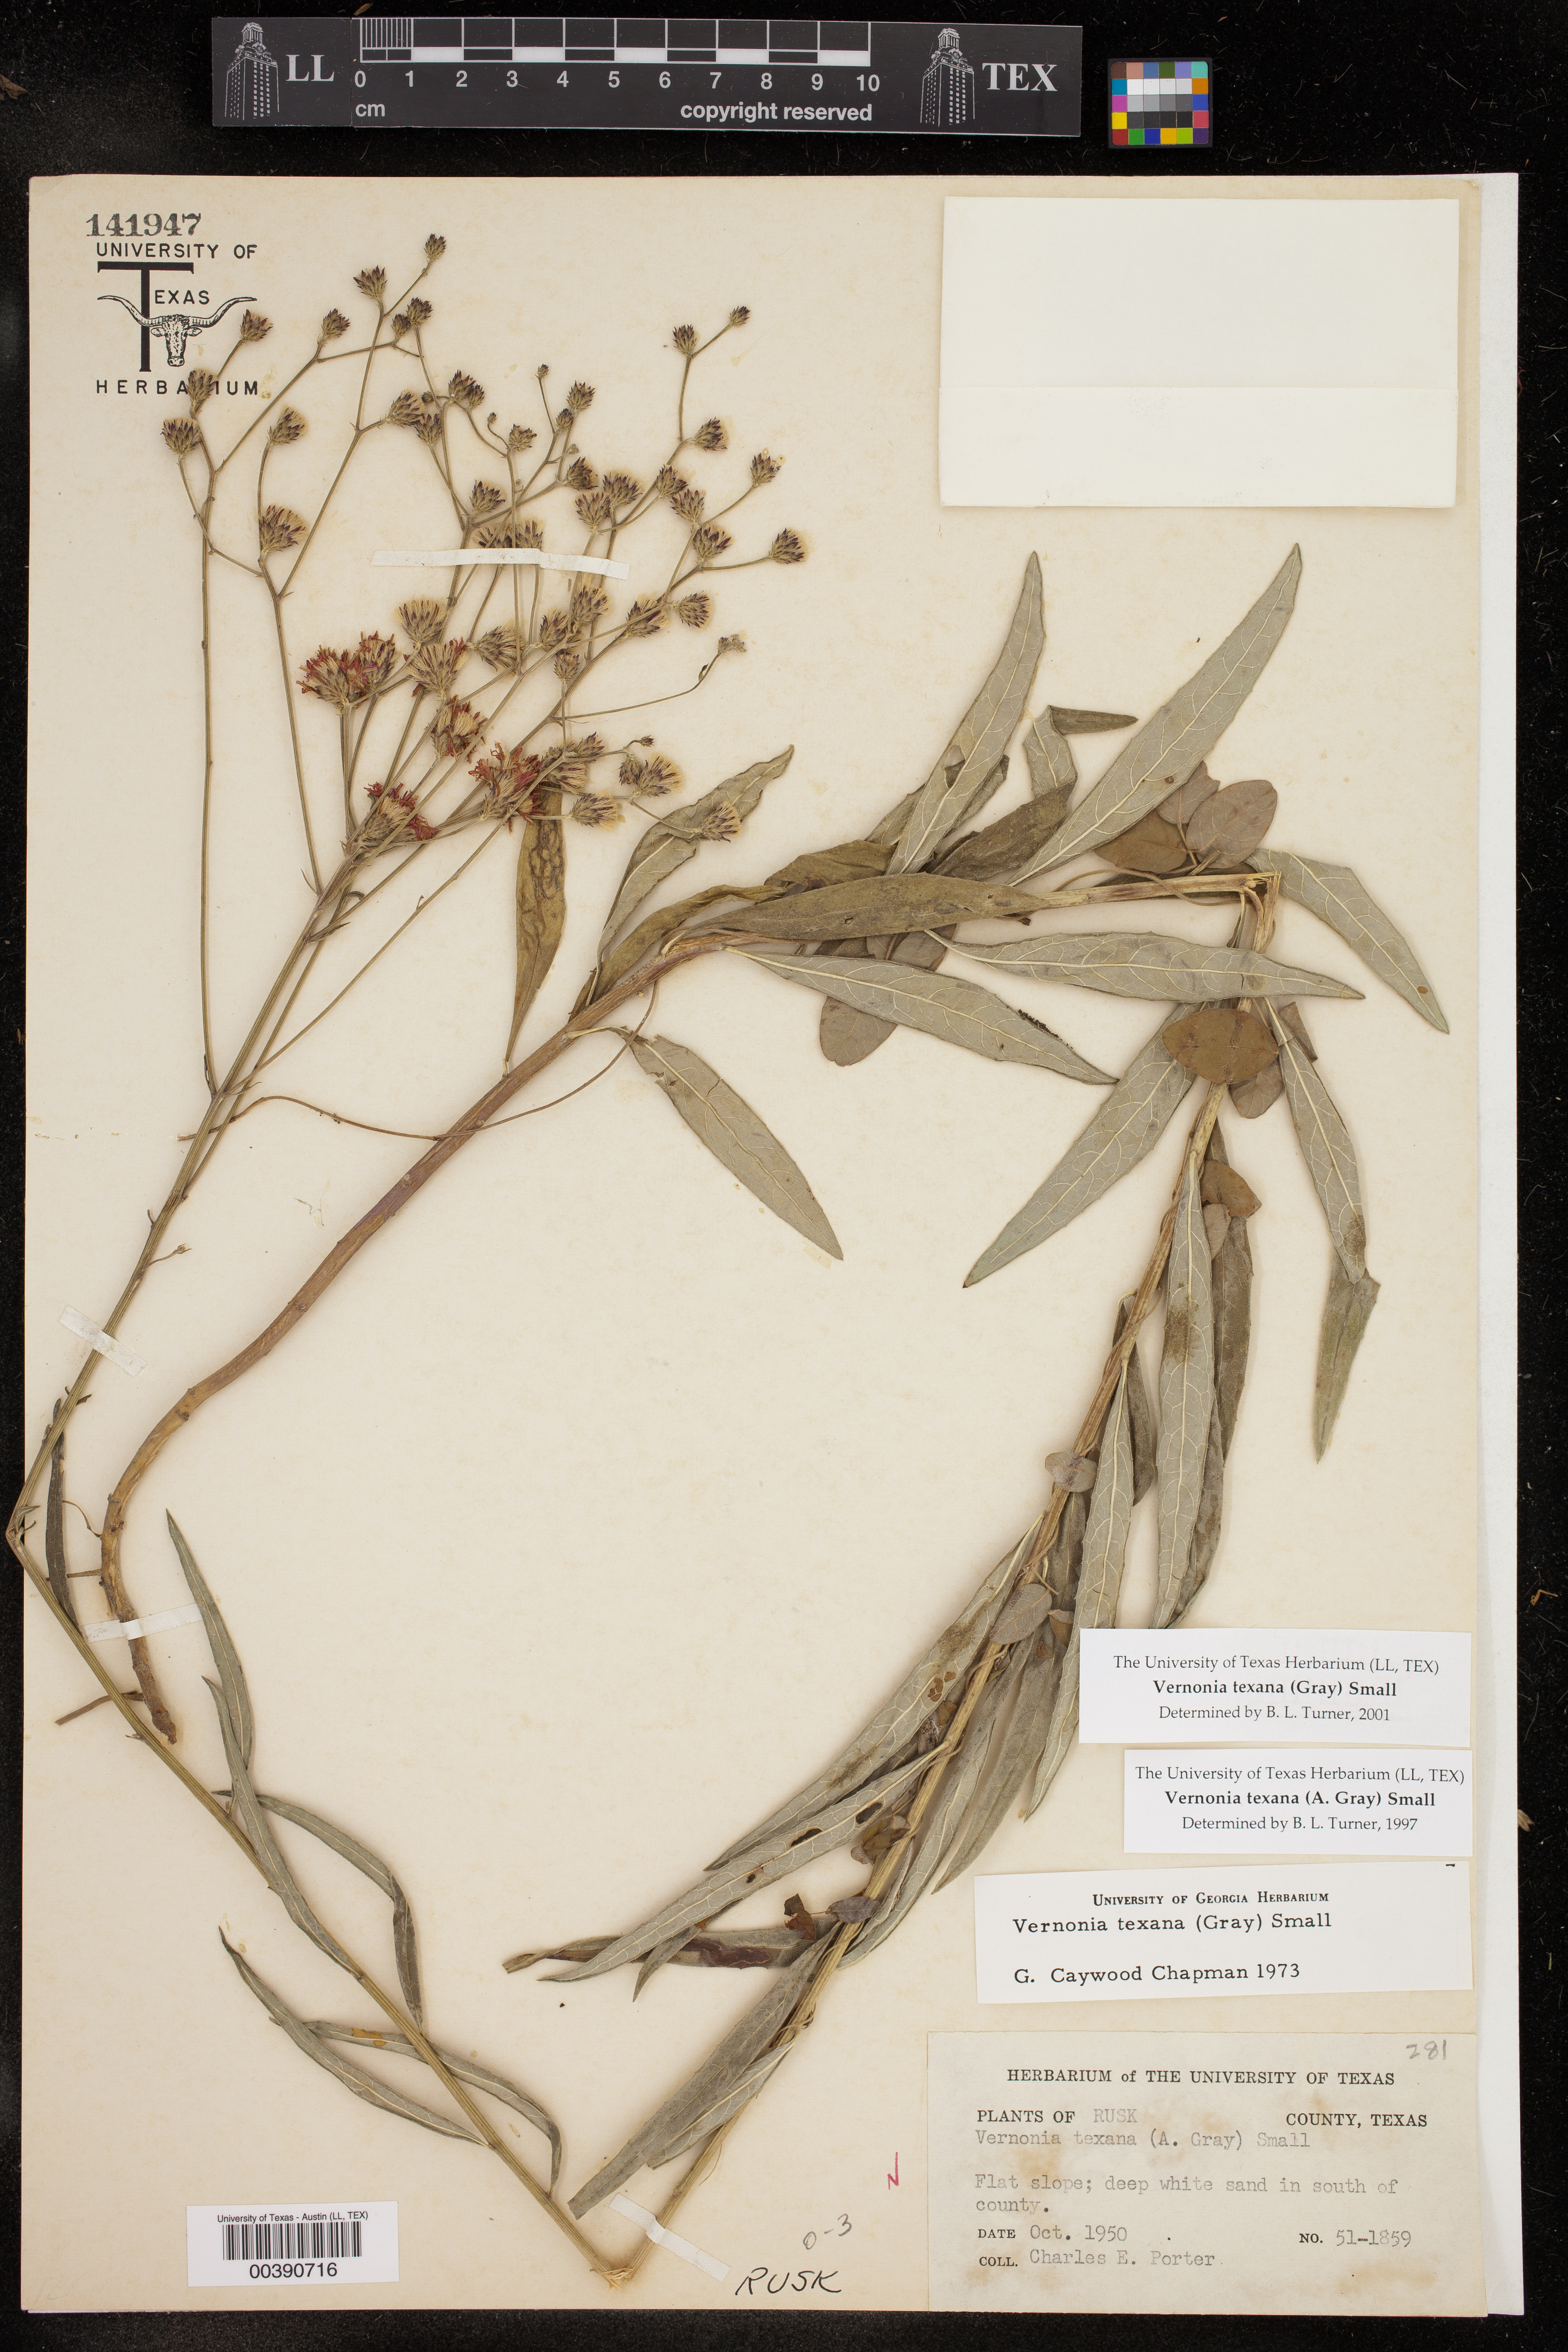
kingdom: Plantae
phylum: Tracheophyta
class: Magnoliopsida
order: Asterales
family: Asteraceae
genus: Vernonia
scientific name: Vernonia texana
